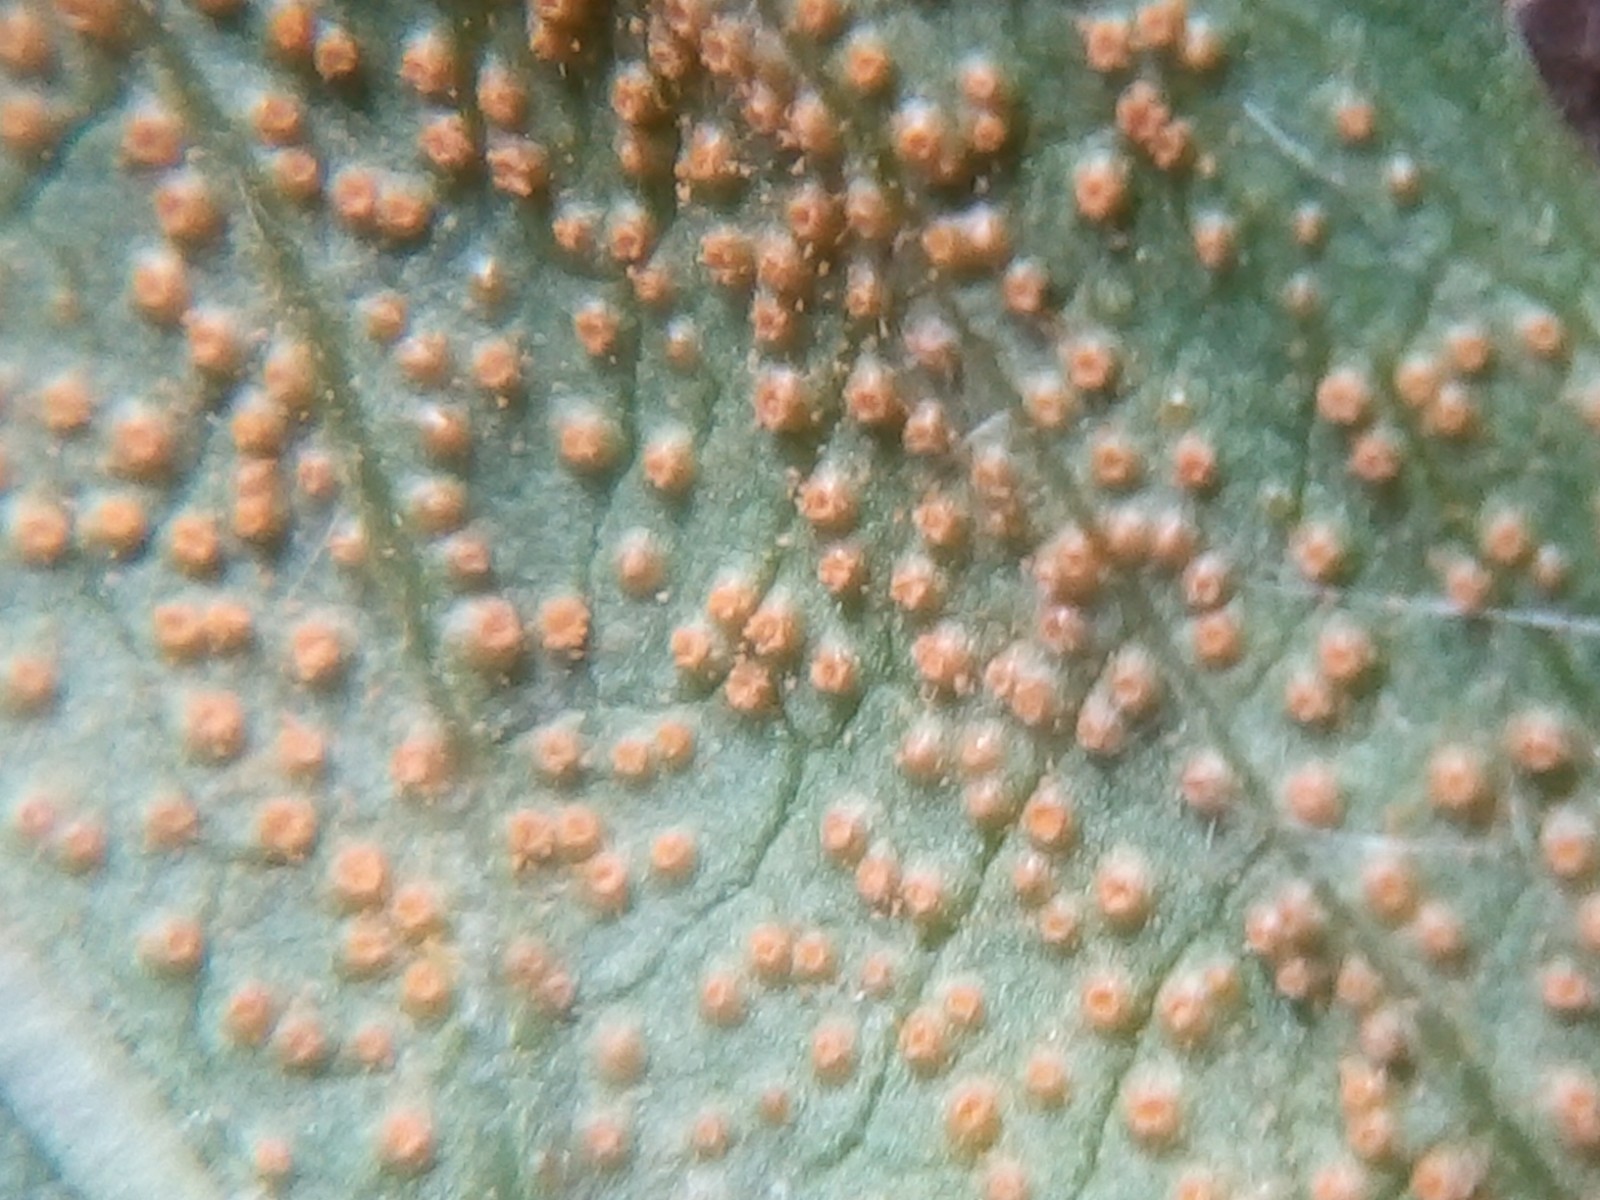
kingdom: Fungi
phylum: Basidiomycota
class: Pucciniomycetes
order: Pucciniales
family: Pucciniaceae
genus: Puccinia
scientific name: Puccinia pulverulenta
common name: dueurt-tvecellerust
